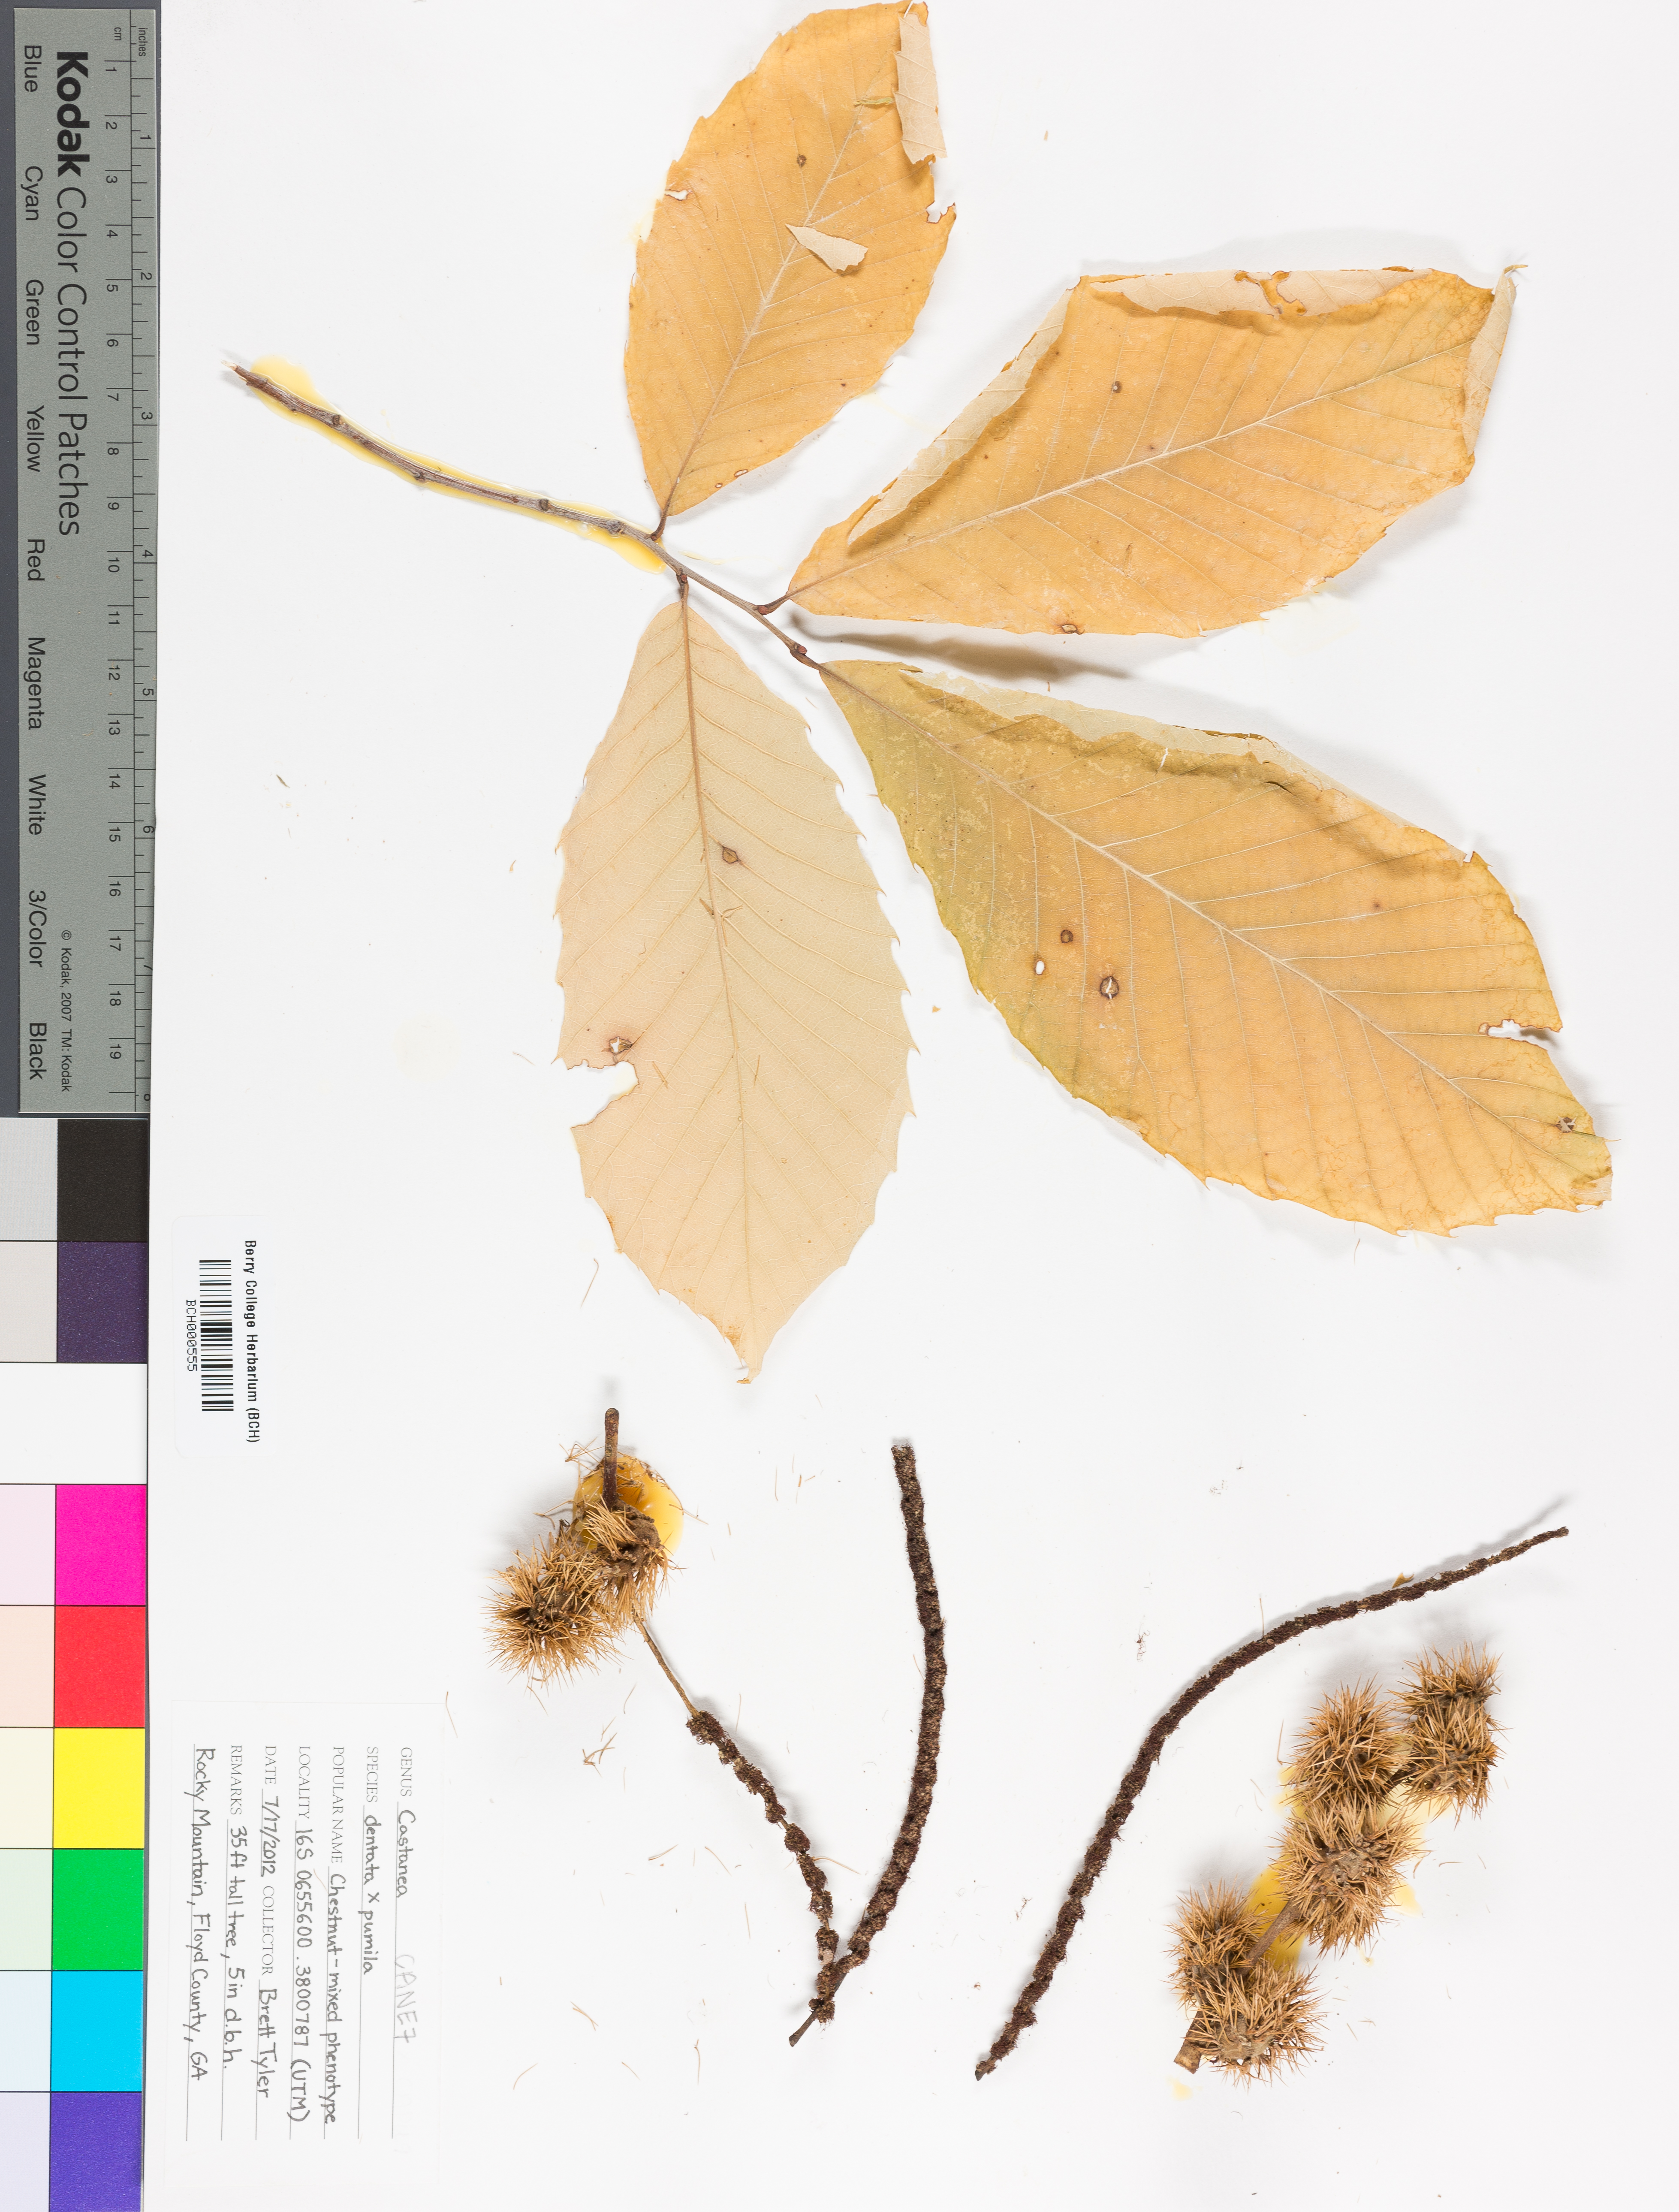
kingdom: Plantae
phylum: Tracheophyta
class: Magnoliopsida
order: Fagales
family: Fagaceae
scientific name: Fagaceae
